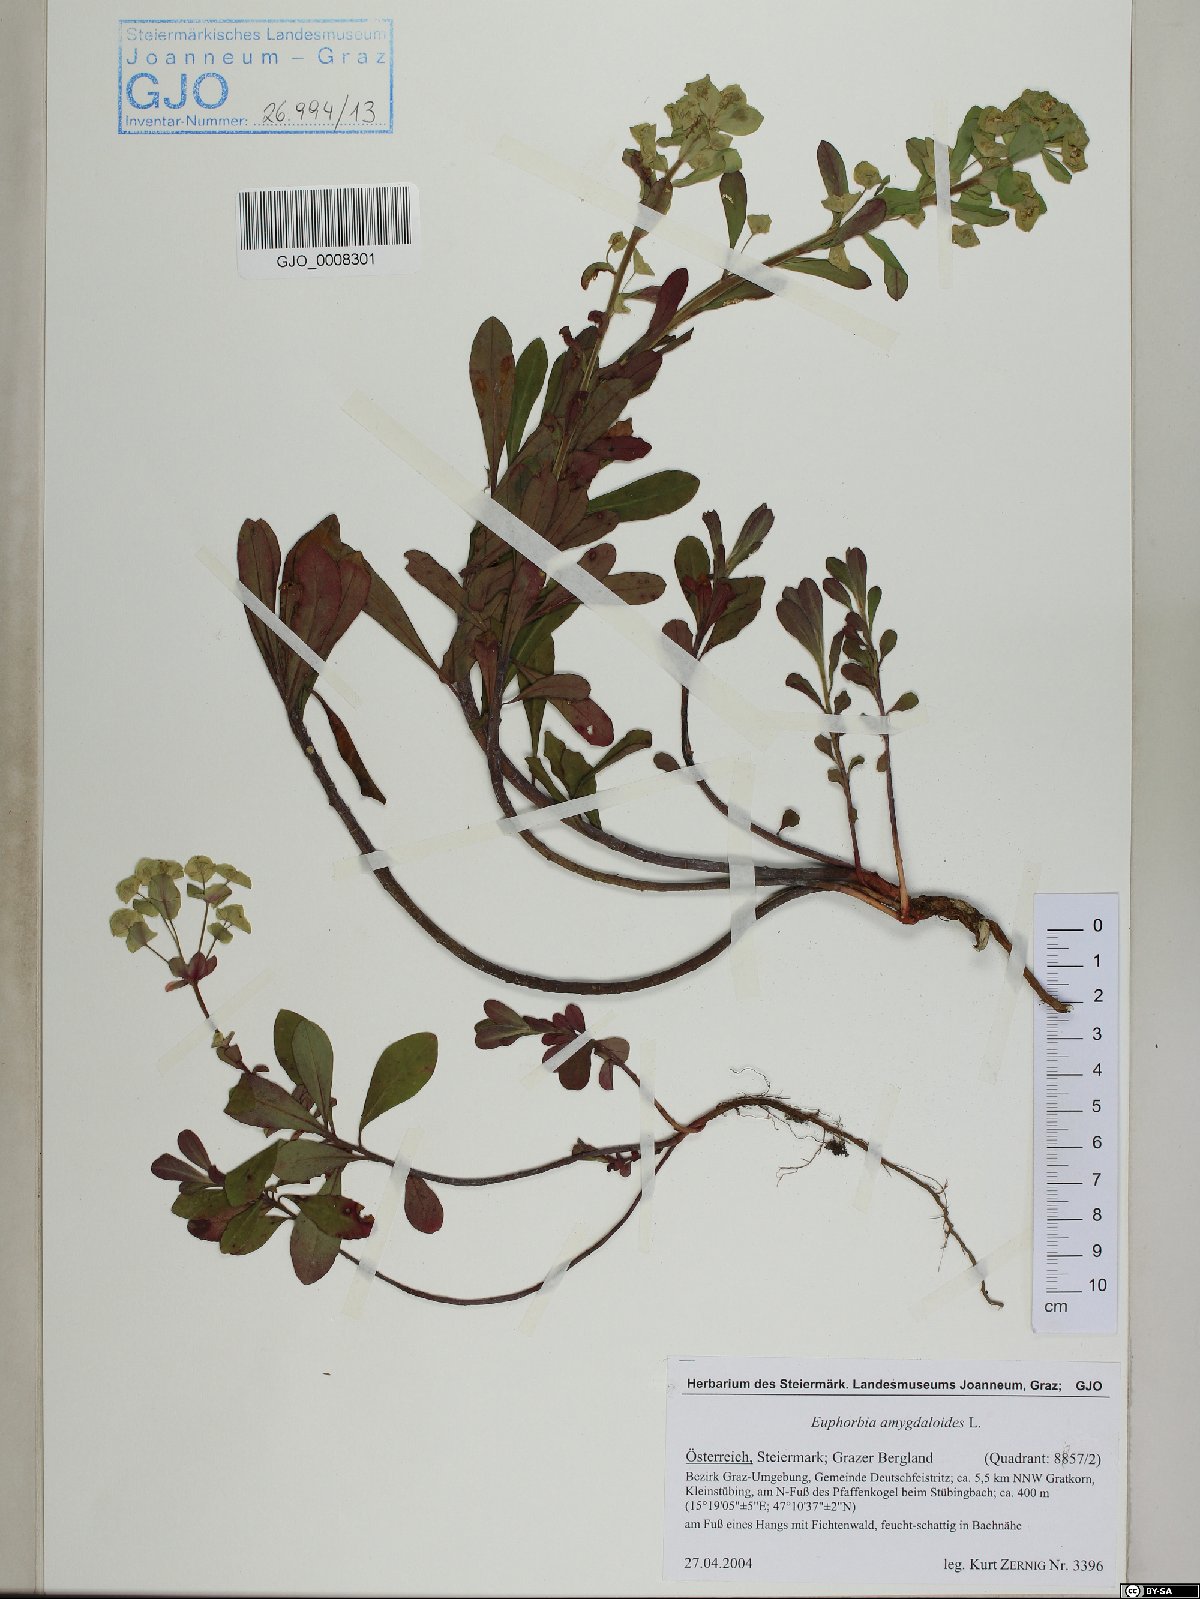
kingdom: Plantae
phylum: Tracheophyta
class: Magnoliopsida
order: Malpighiales
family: Euphorbiaceae
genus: Euphorbia
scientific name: Euphorbia amygdaloides
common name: Wood spurge
